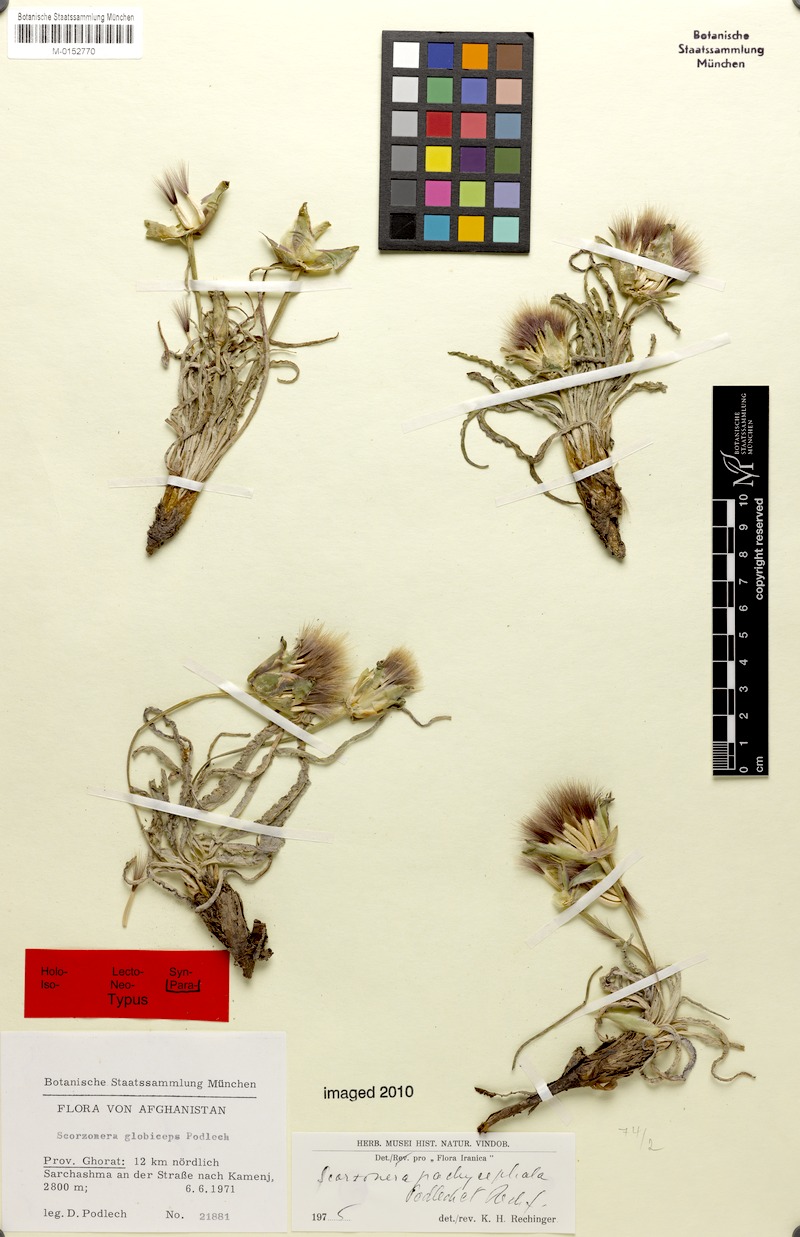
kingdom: Plantae
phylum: Tracheophyta
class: Magnoliopsida
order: Asterales
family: Asteraceae
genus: Pseudopodospermum
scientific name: Pseudopodospermum pachycephalum
